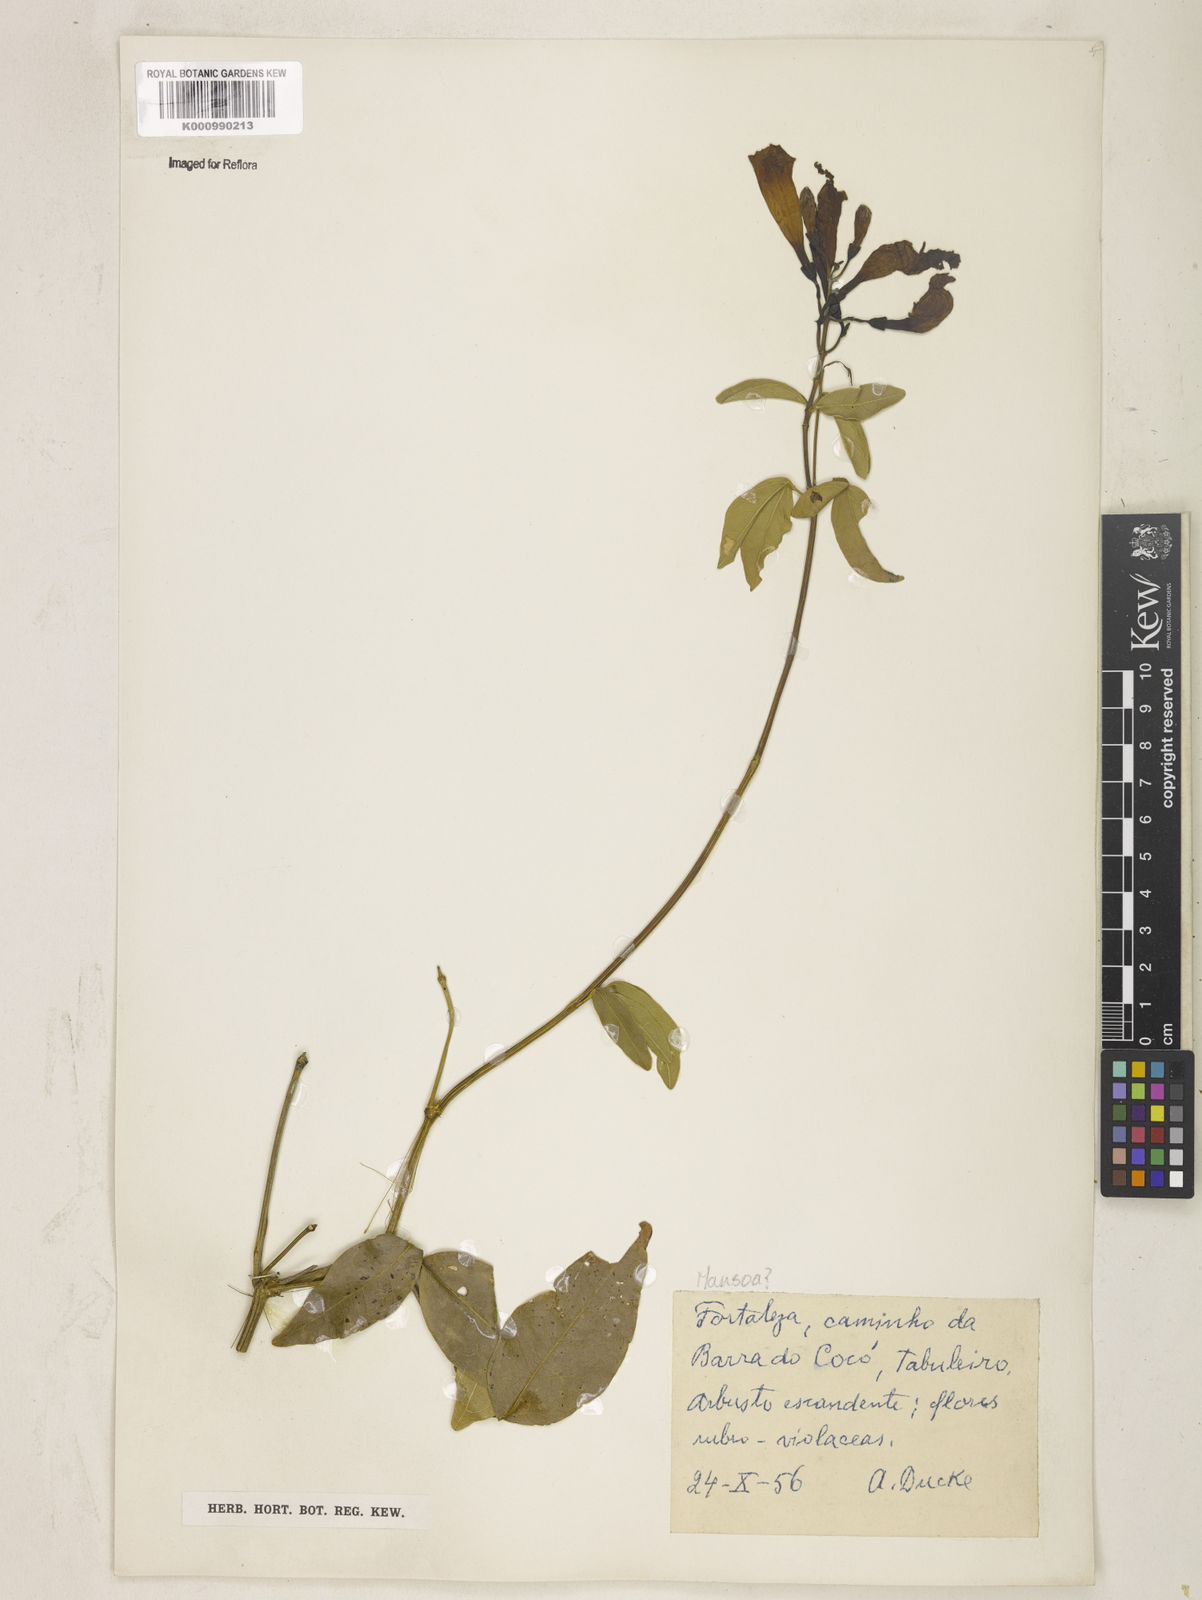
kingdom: Plantae
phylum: Tracheophyta
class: Magnoliopsida
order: Lamiales
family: Bignoniaceae
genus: Mansoa
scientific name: Mansoa
